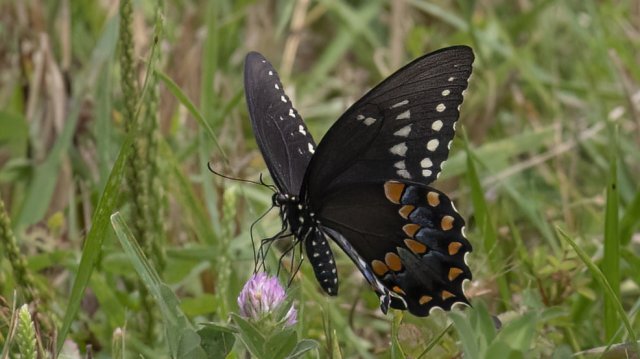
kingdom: Animalia
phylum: Arthropoda
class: Insecta
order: Lepidoptera
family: Papilionidae
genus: Pterourus
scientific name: Pterourus troilus
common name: Spicebush Swallowtail
